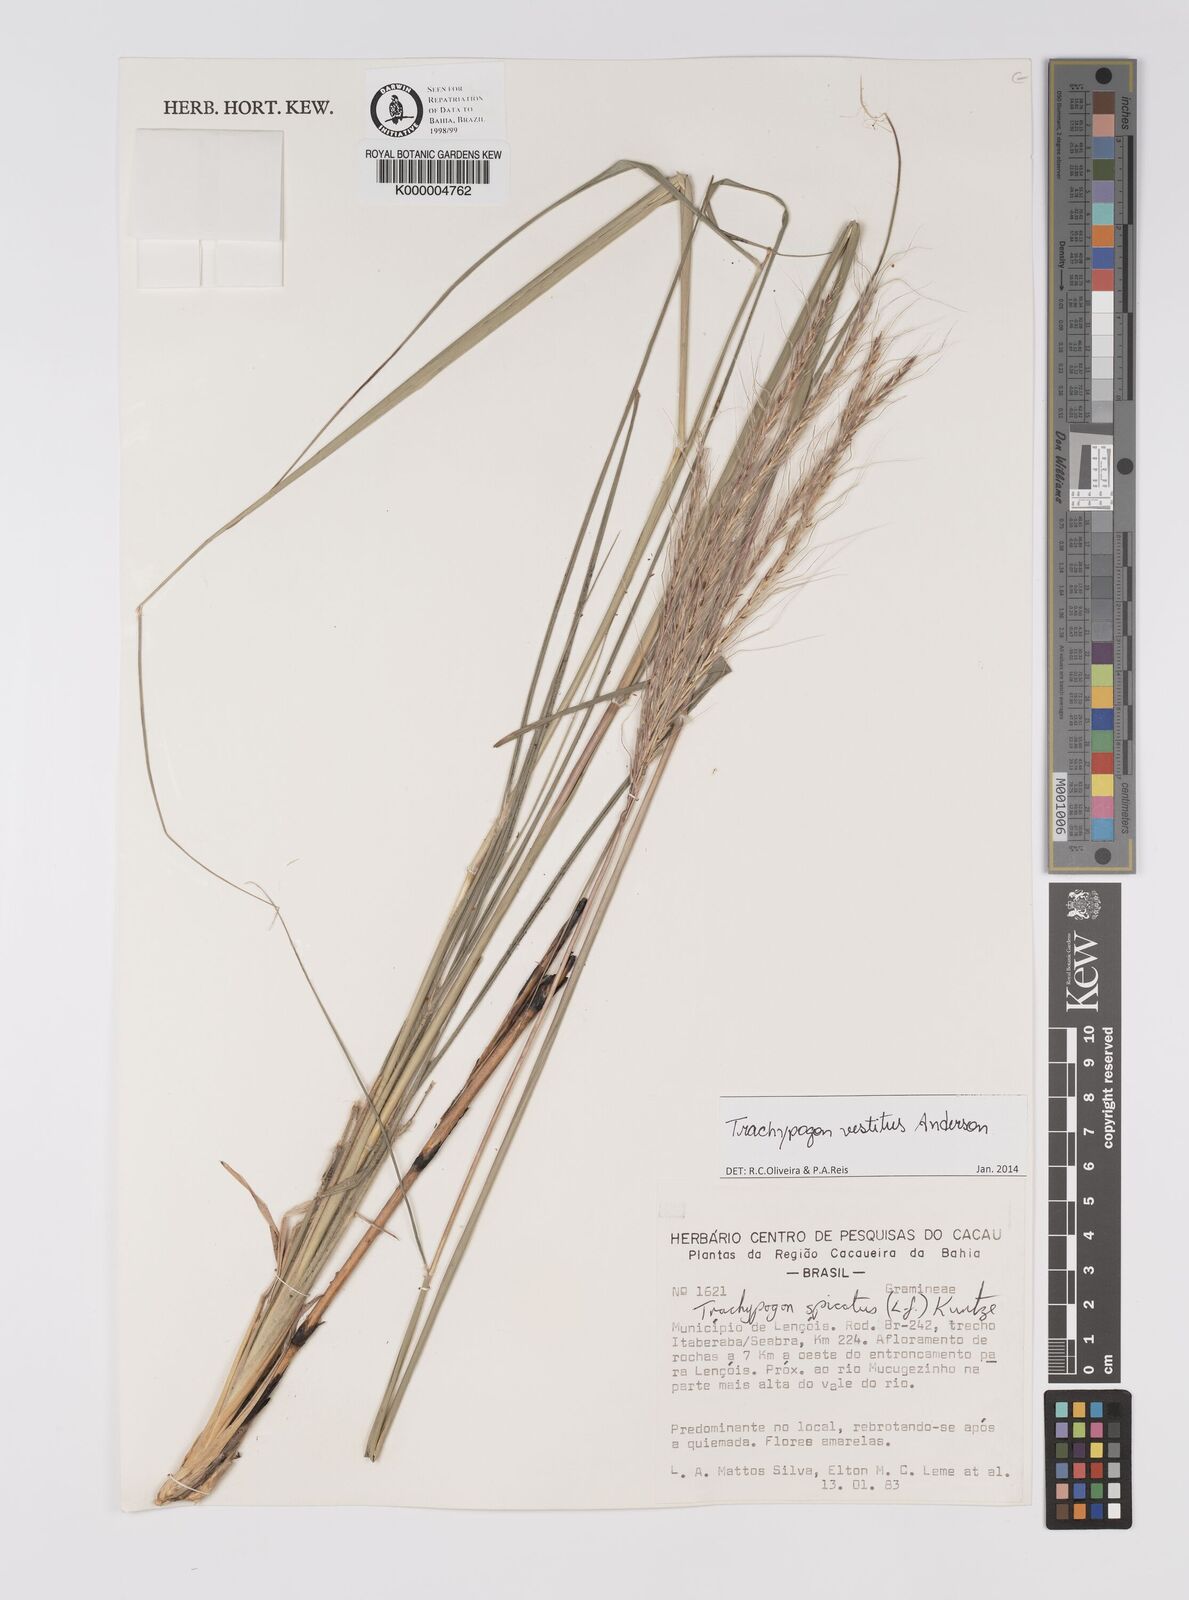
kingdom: Plantae
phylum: Tracheophyta
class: Liliopsida
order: Poales
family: Poaceae
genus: Trachypogon
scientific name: Trachypogon spicatus
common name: Crinkle-awn
